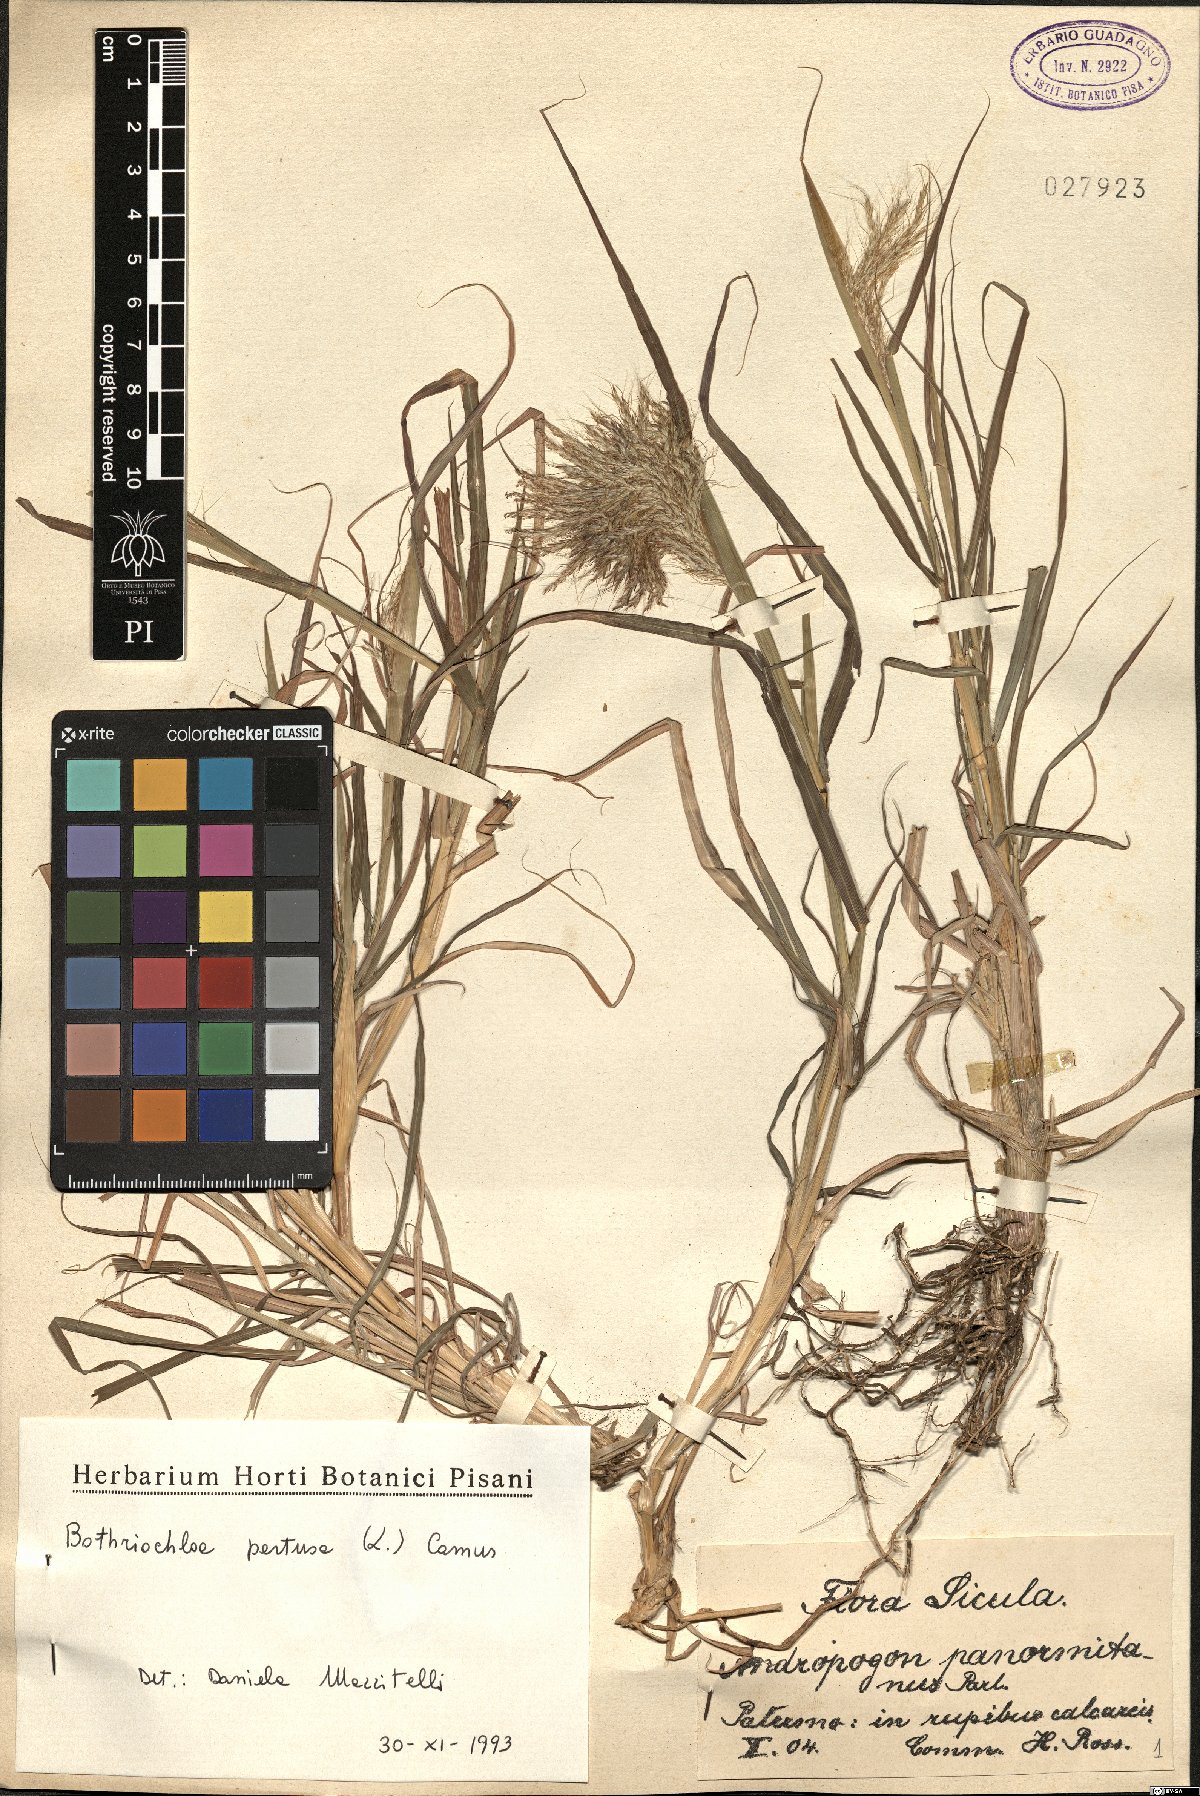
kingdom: Plantae
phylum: Tracheophyta
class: Liliopsida
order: Poales
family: Poaceae
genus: Bothriochloa
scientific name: Bothriochloa ischaemum
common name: Yellow bluestem
